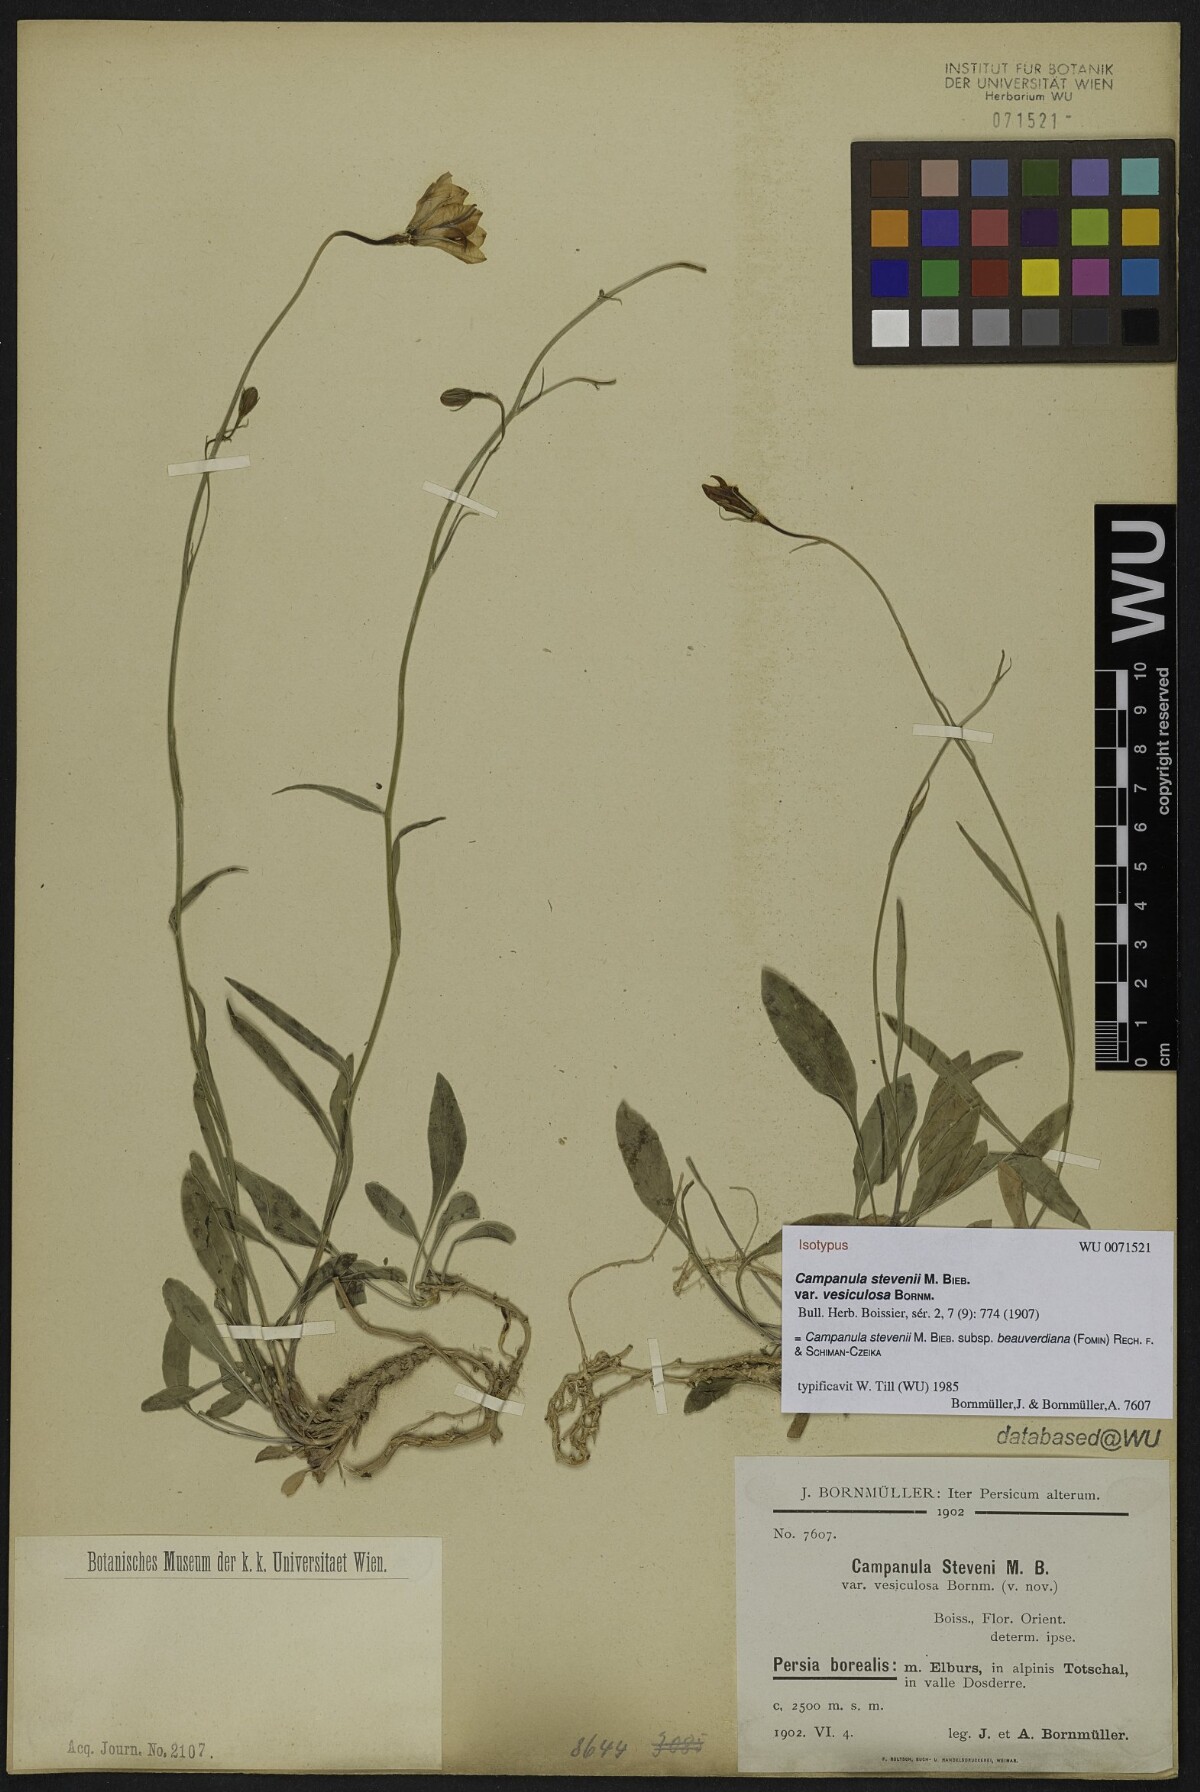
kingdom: Plantae
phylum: Tracheophyta
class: Magnoliopsida
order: Asterales
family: Campanulaceae
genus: Campanula
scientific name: Campanula stevenii
